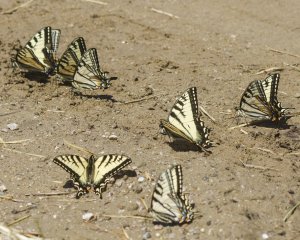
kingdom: Animalia
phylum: Arthropoda
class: Insecta
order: Lepidoptera
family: Papilionidae
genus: Pterourus
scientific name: Pterourus canadensis
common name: Canadian Tiger Swallowtail
